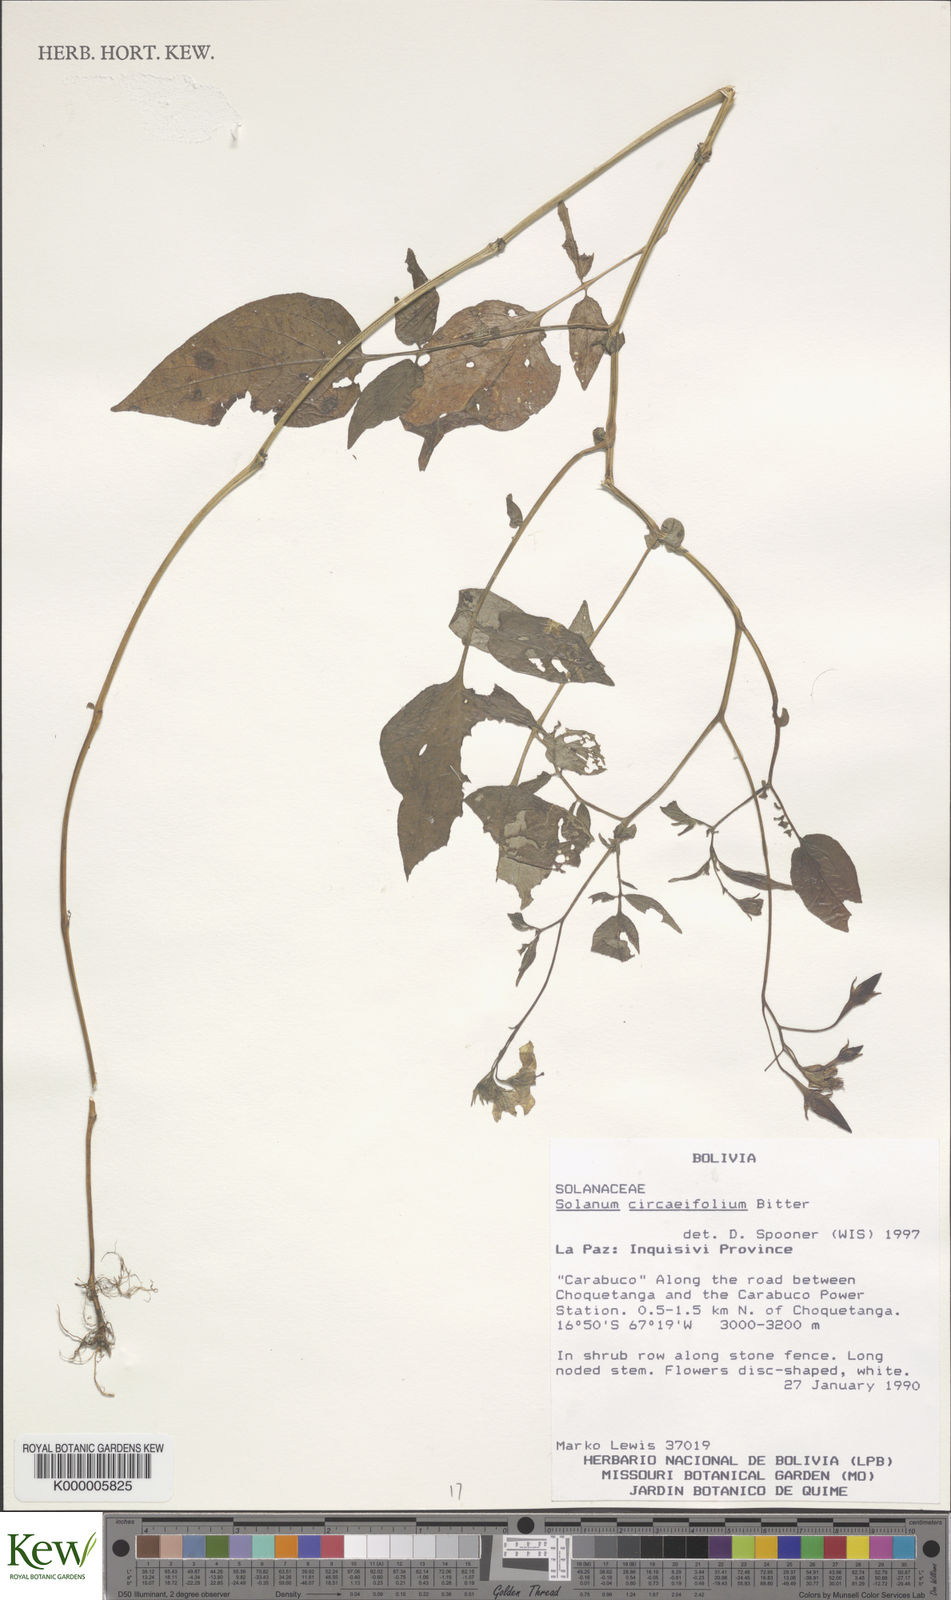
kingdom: Plantae
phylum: Tracheophyta
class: Magnoliopsida
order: Solanales
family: Solanaceae
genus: Solanum
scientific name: Solanum stipuloideum
